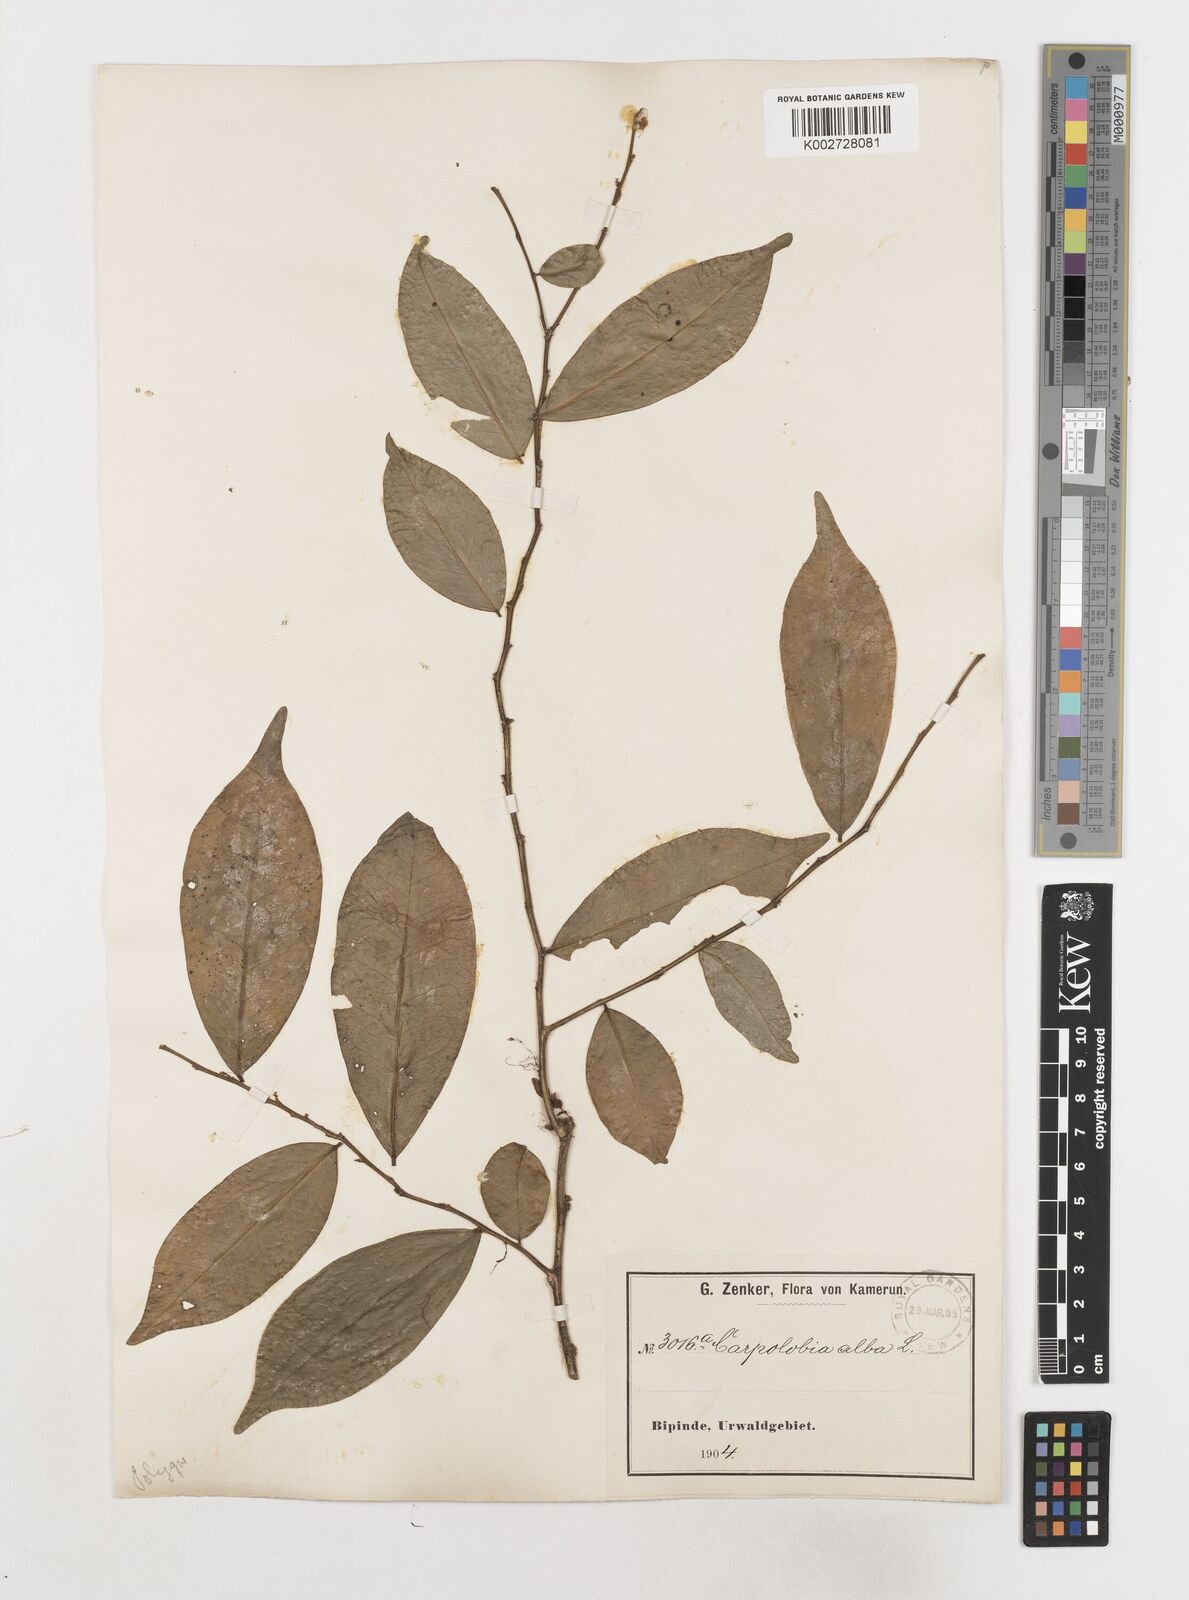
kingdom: Plantae
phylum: Tracheophyta
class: Magnoliopsida
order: Fabales
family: Polygalaceae
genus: Carpolobia
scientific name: Carpolobia alba
